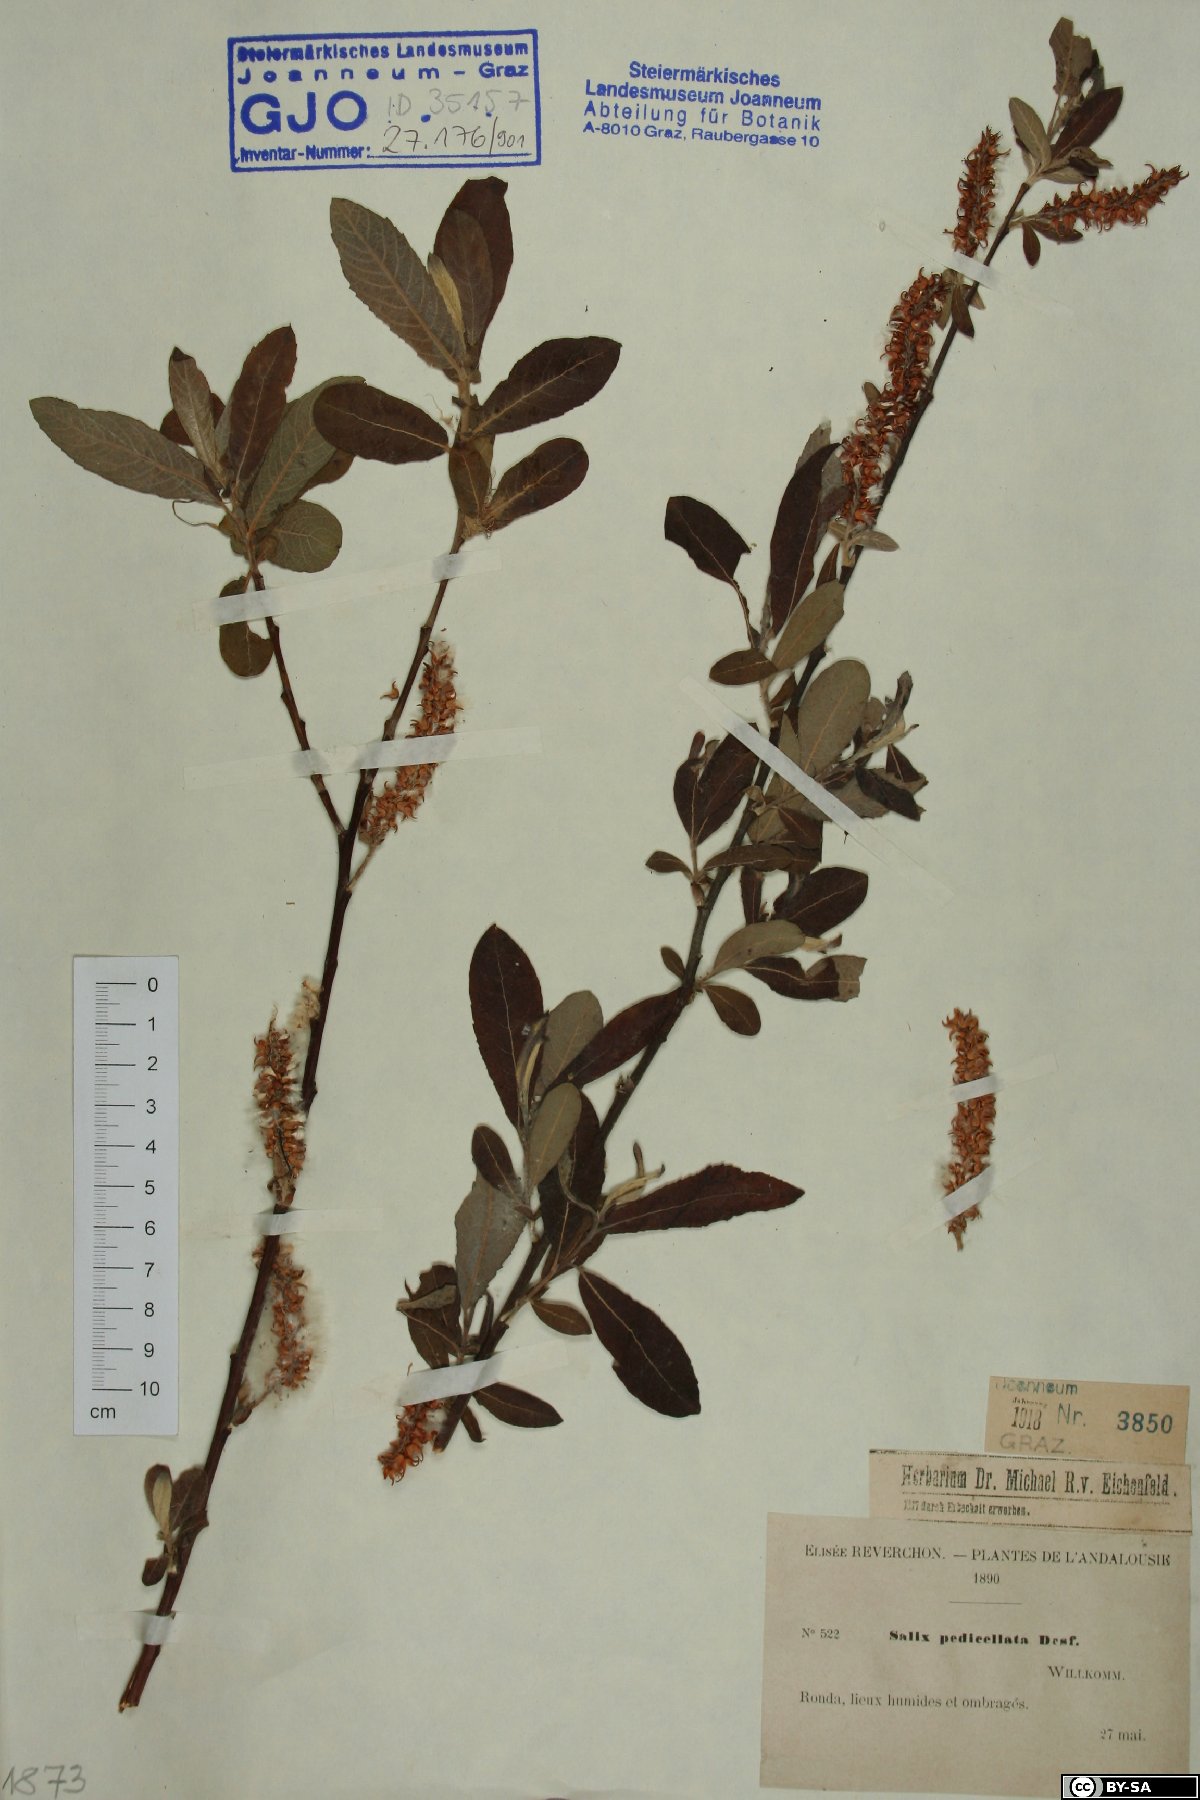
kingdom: Plantae
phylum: Tracheophyta
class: Magnoliopsida
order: Malpighiales
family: Salicaceae
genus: Salix
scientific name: Salix pedicellata
